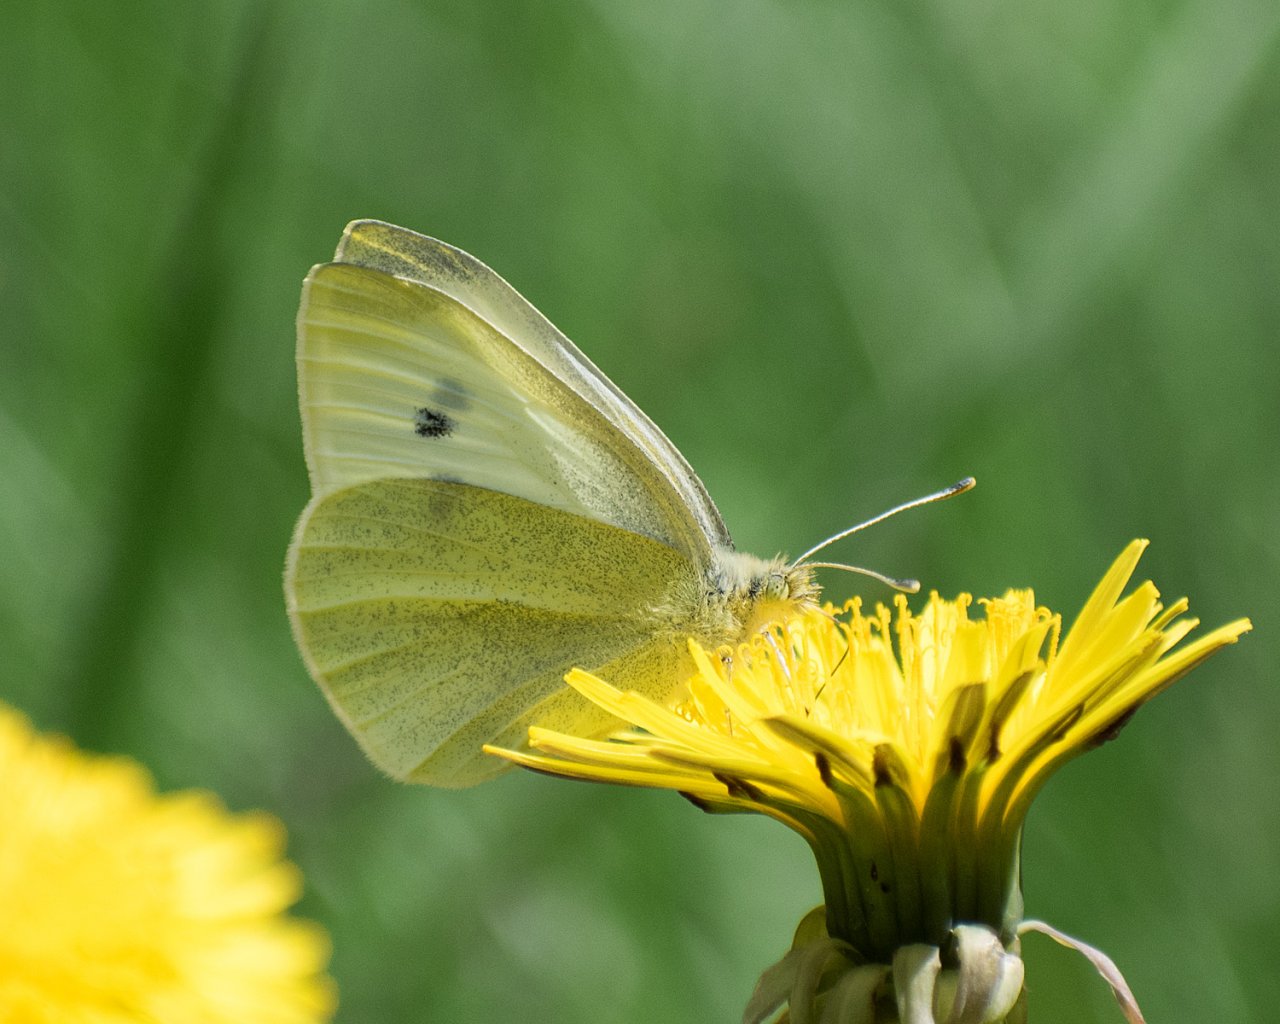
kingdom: Animalia
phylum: Arthropoda
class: Insecta
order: Lepidoptera
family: Pieridae
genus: Pieris
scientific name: Pieris rapae
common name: Cabbage White
